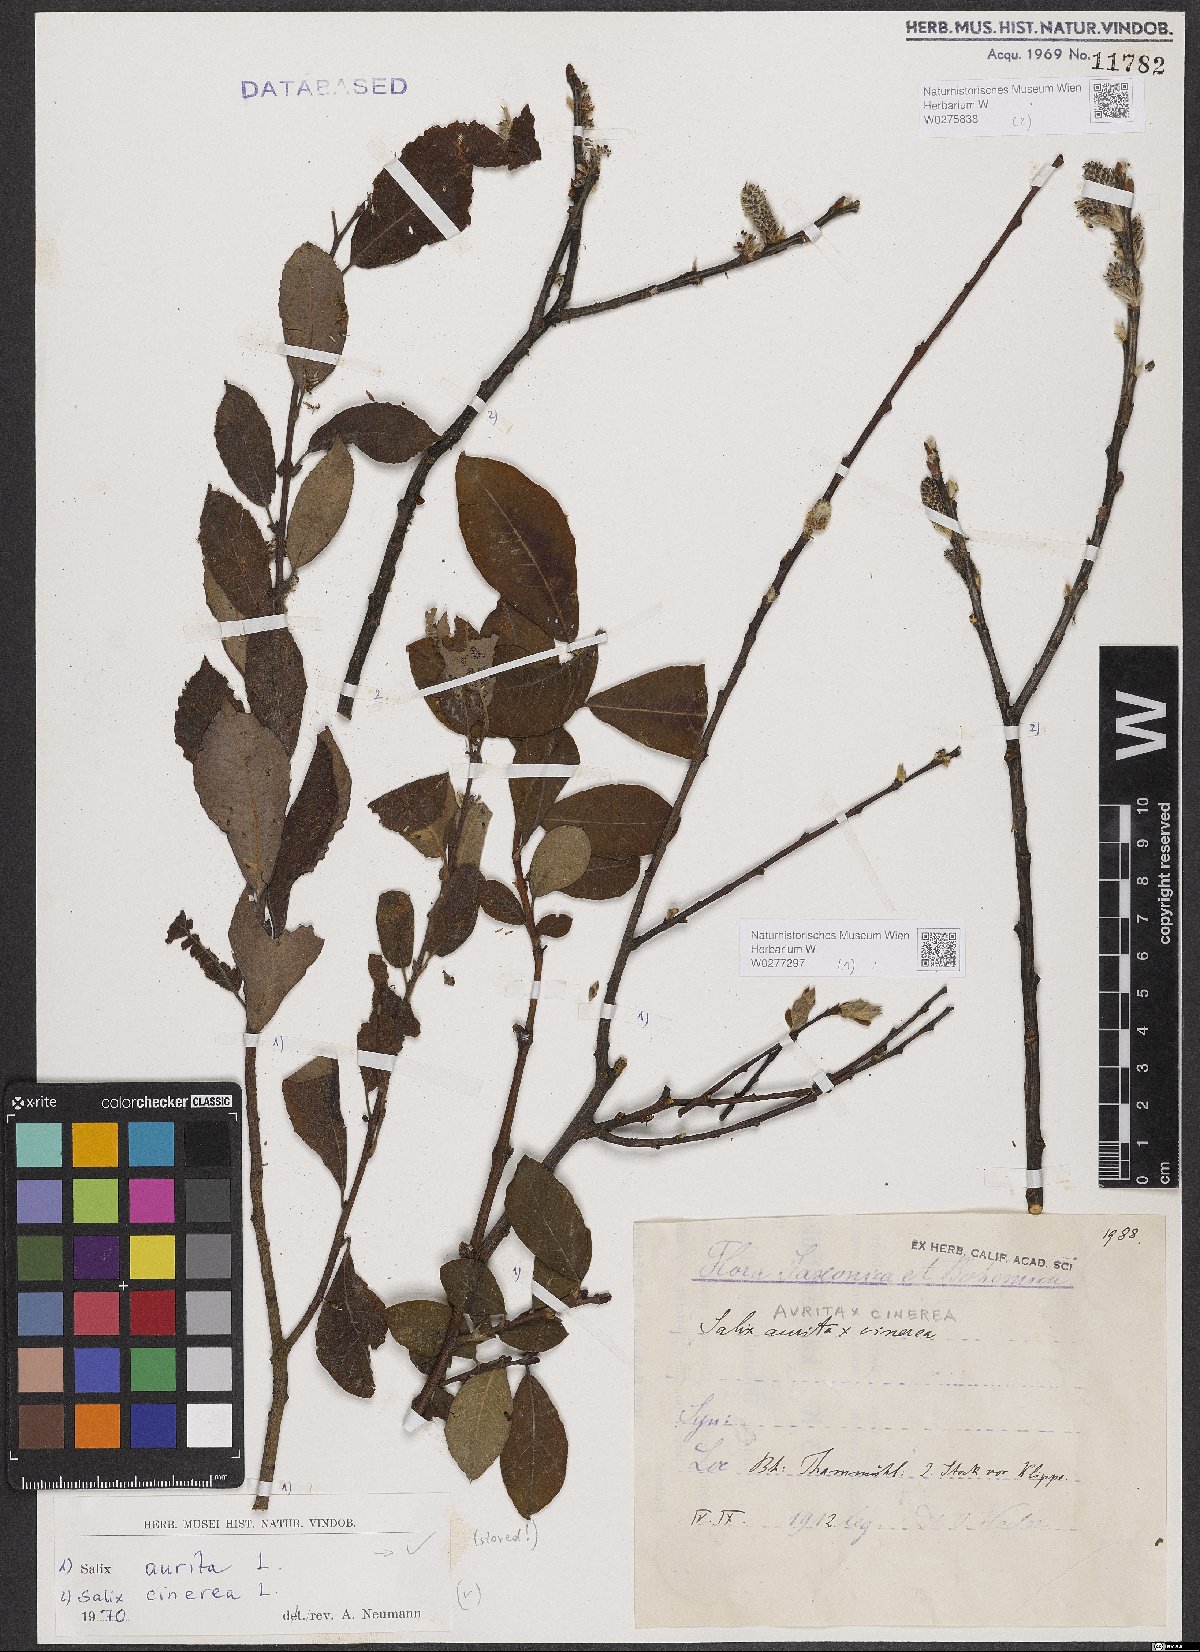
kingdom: Plantae
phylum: Tracheophyta
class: Magnoliopsida
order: Malpighiales
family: Salicaceae
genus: Salix
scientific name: Salix aurita
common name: Eared willow
